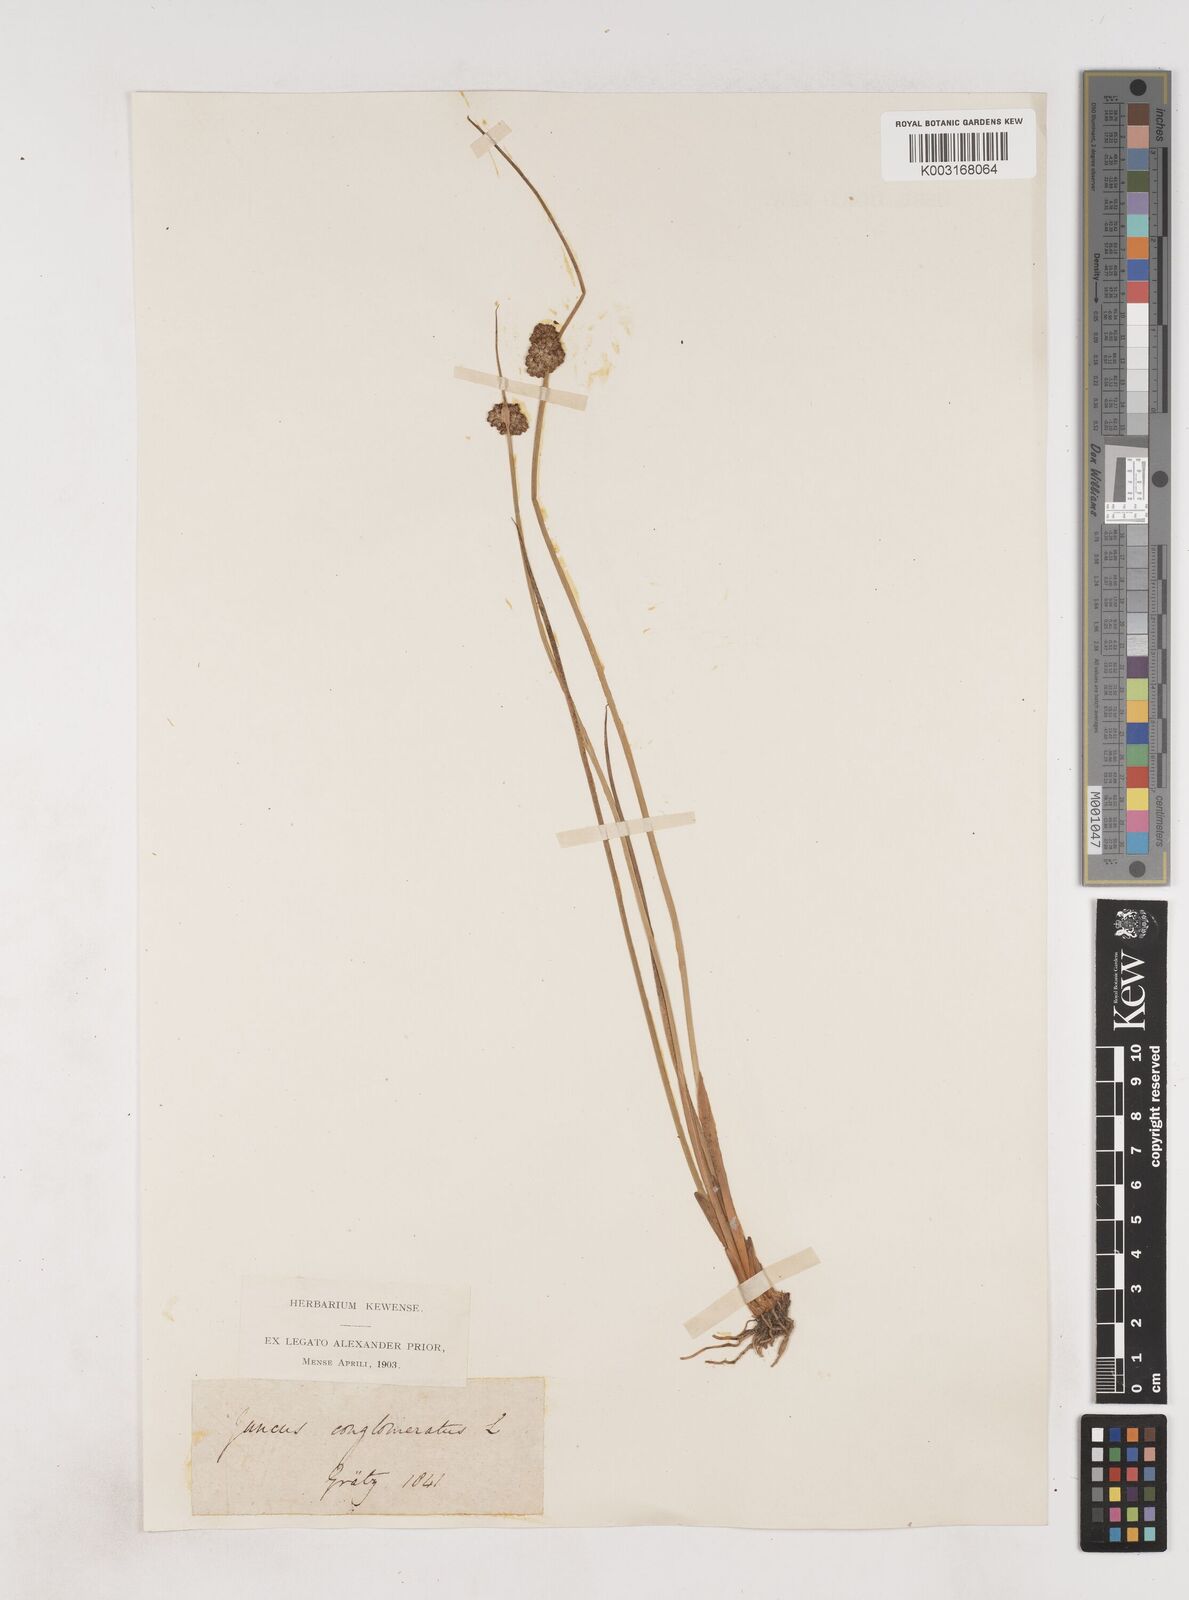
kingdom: Plantae
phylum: Tracheophyta
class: Liliopsida
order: Poales
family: Juncaceae
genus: Juncus
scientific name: Juncus conglomeratus
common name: Compact rush
